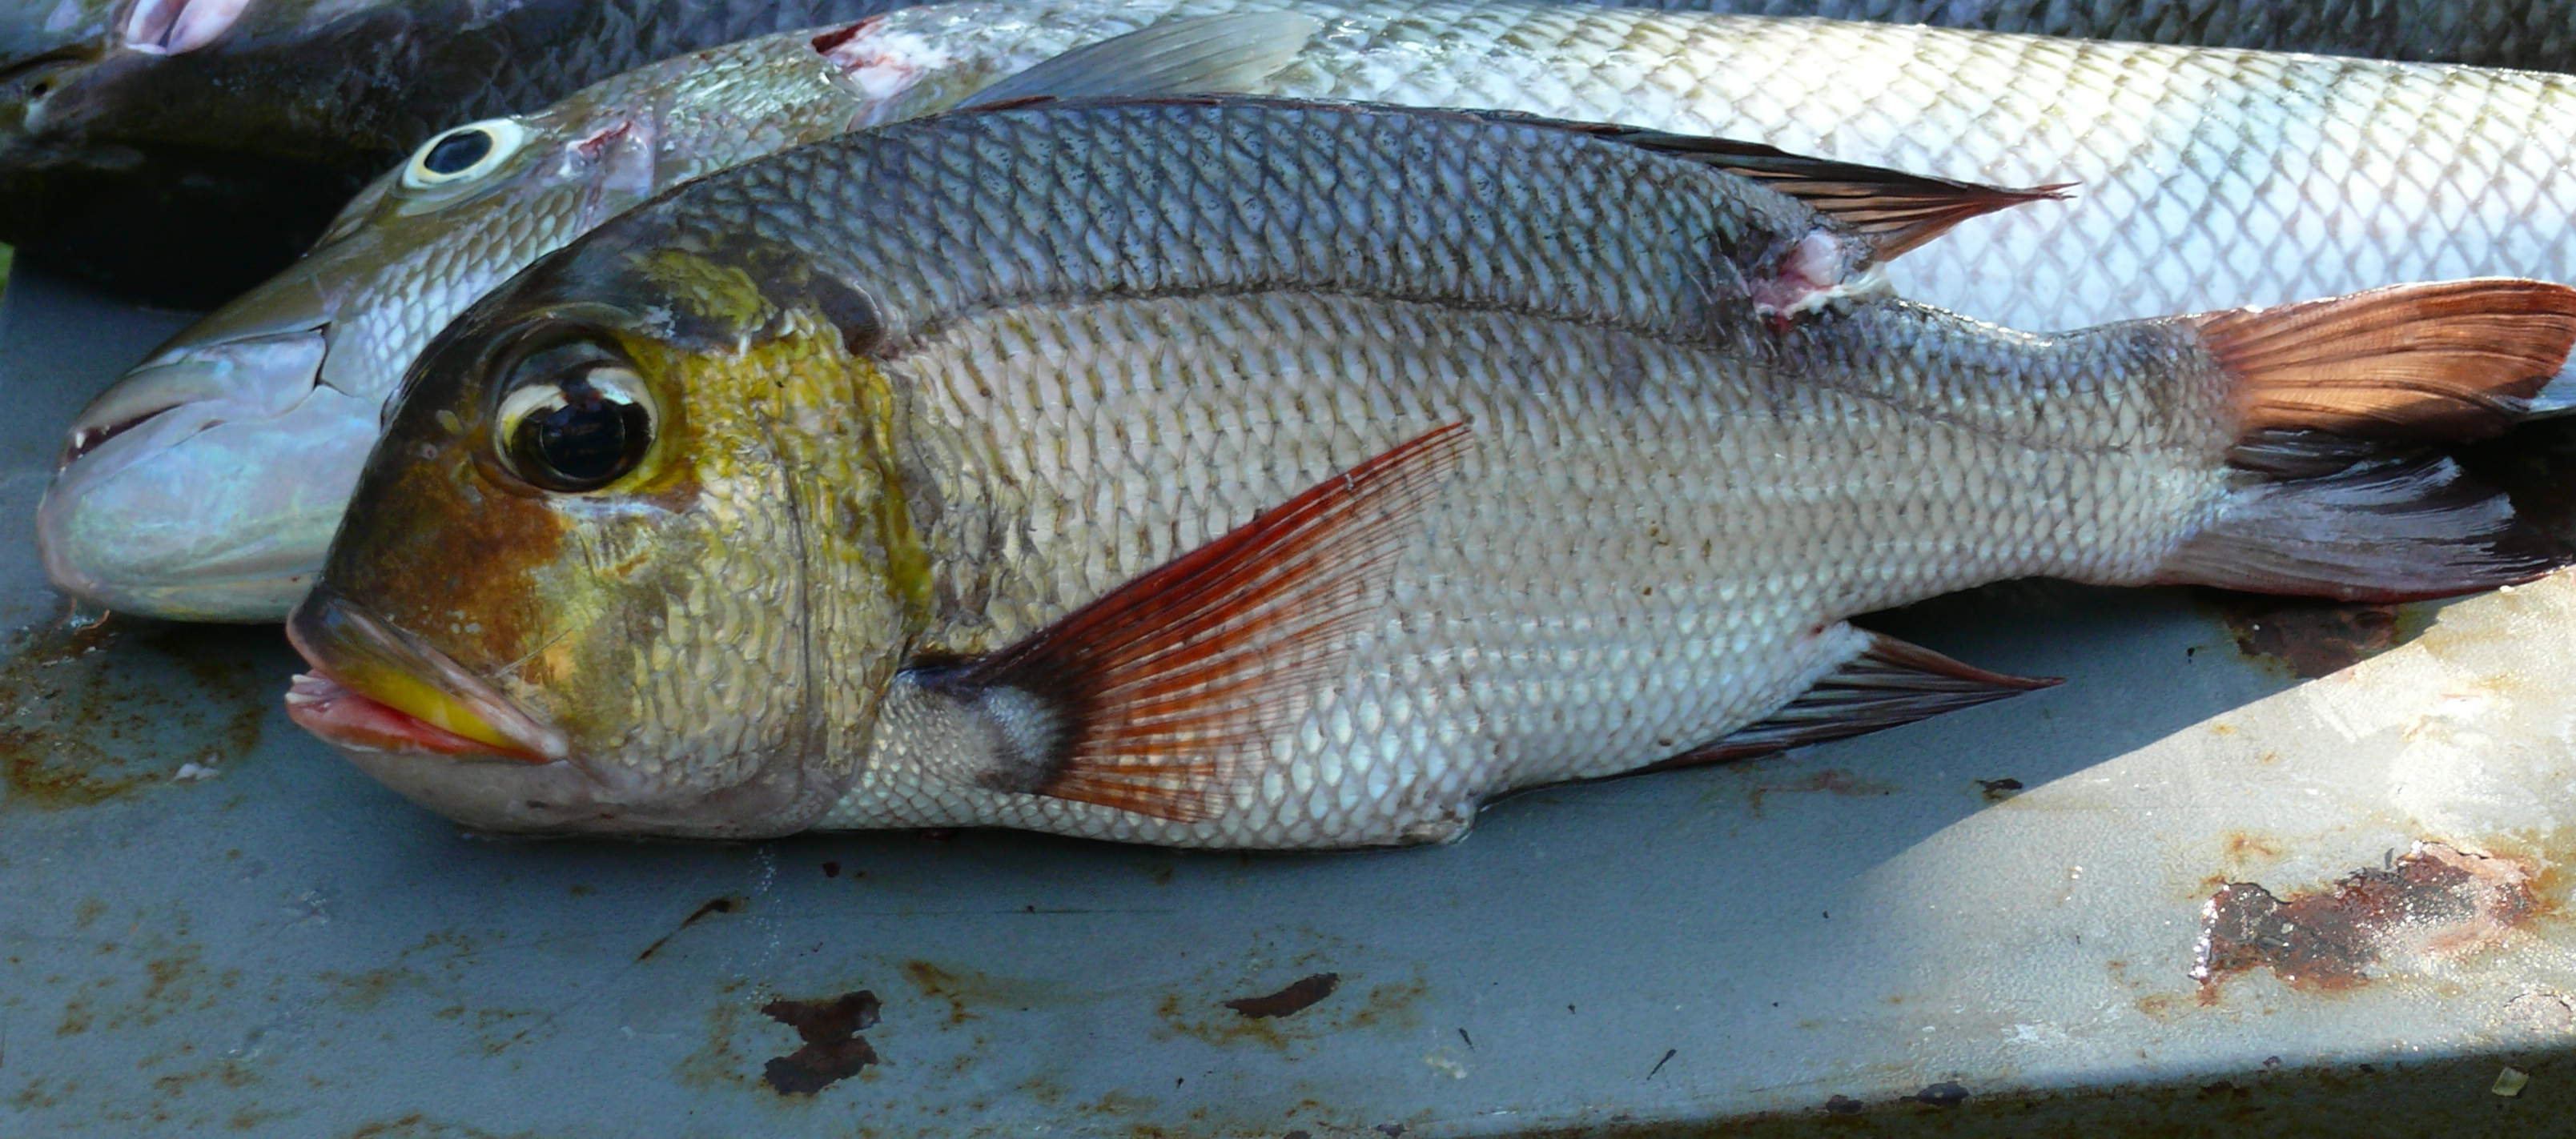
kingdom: Animalia
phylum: Chordata
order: Perciformes
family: Lethrinidae
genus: Monotaxis
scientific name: Monotaxis grandoculis
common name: Bigeye emperor
